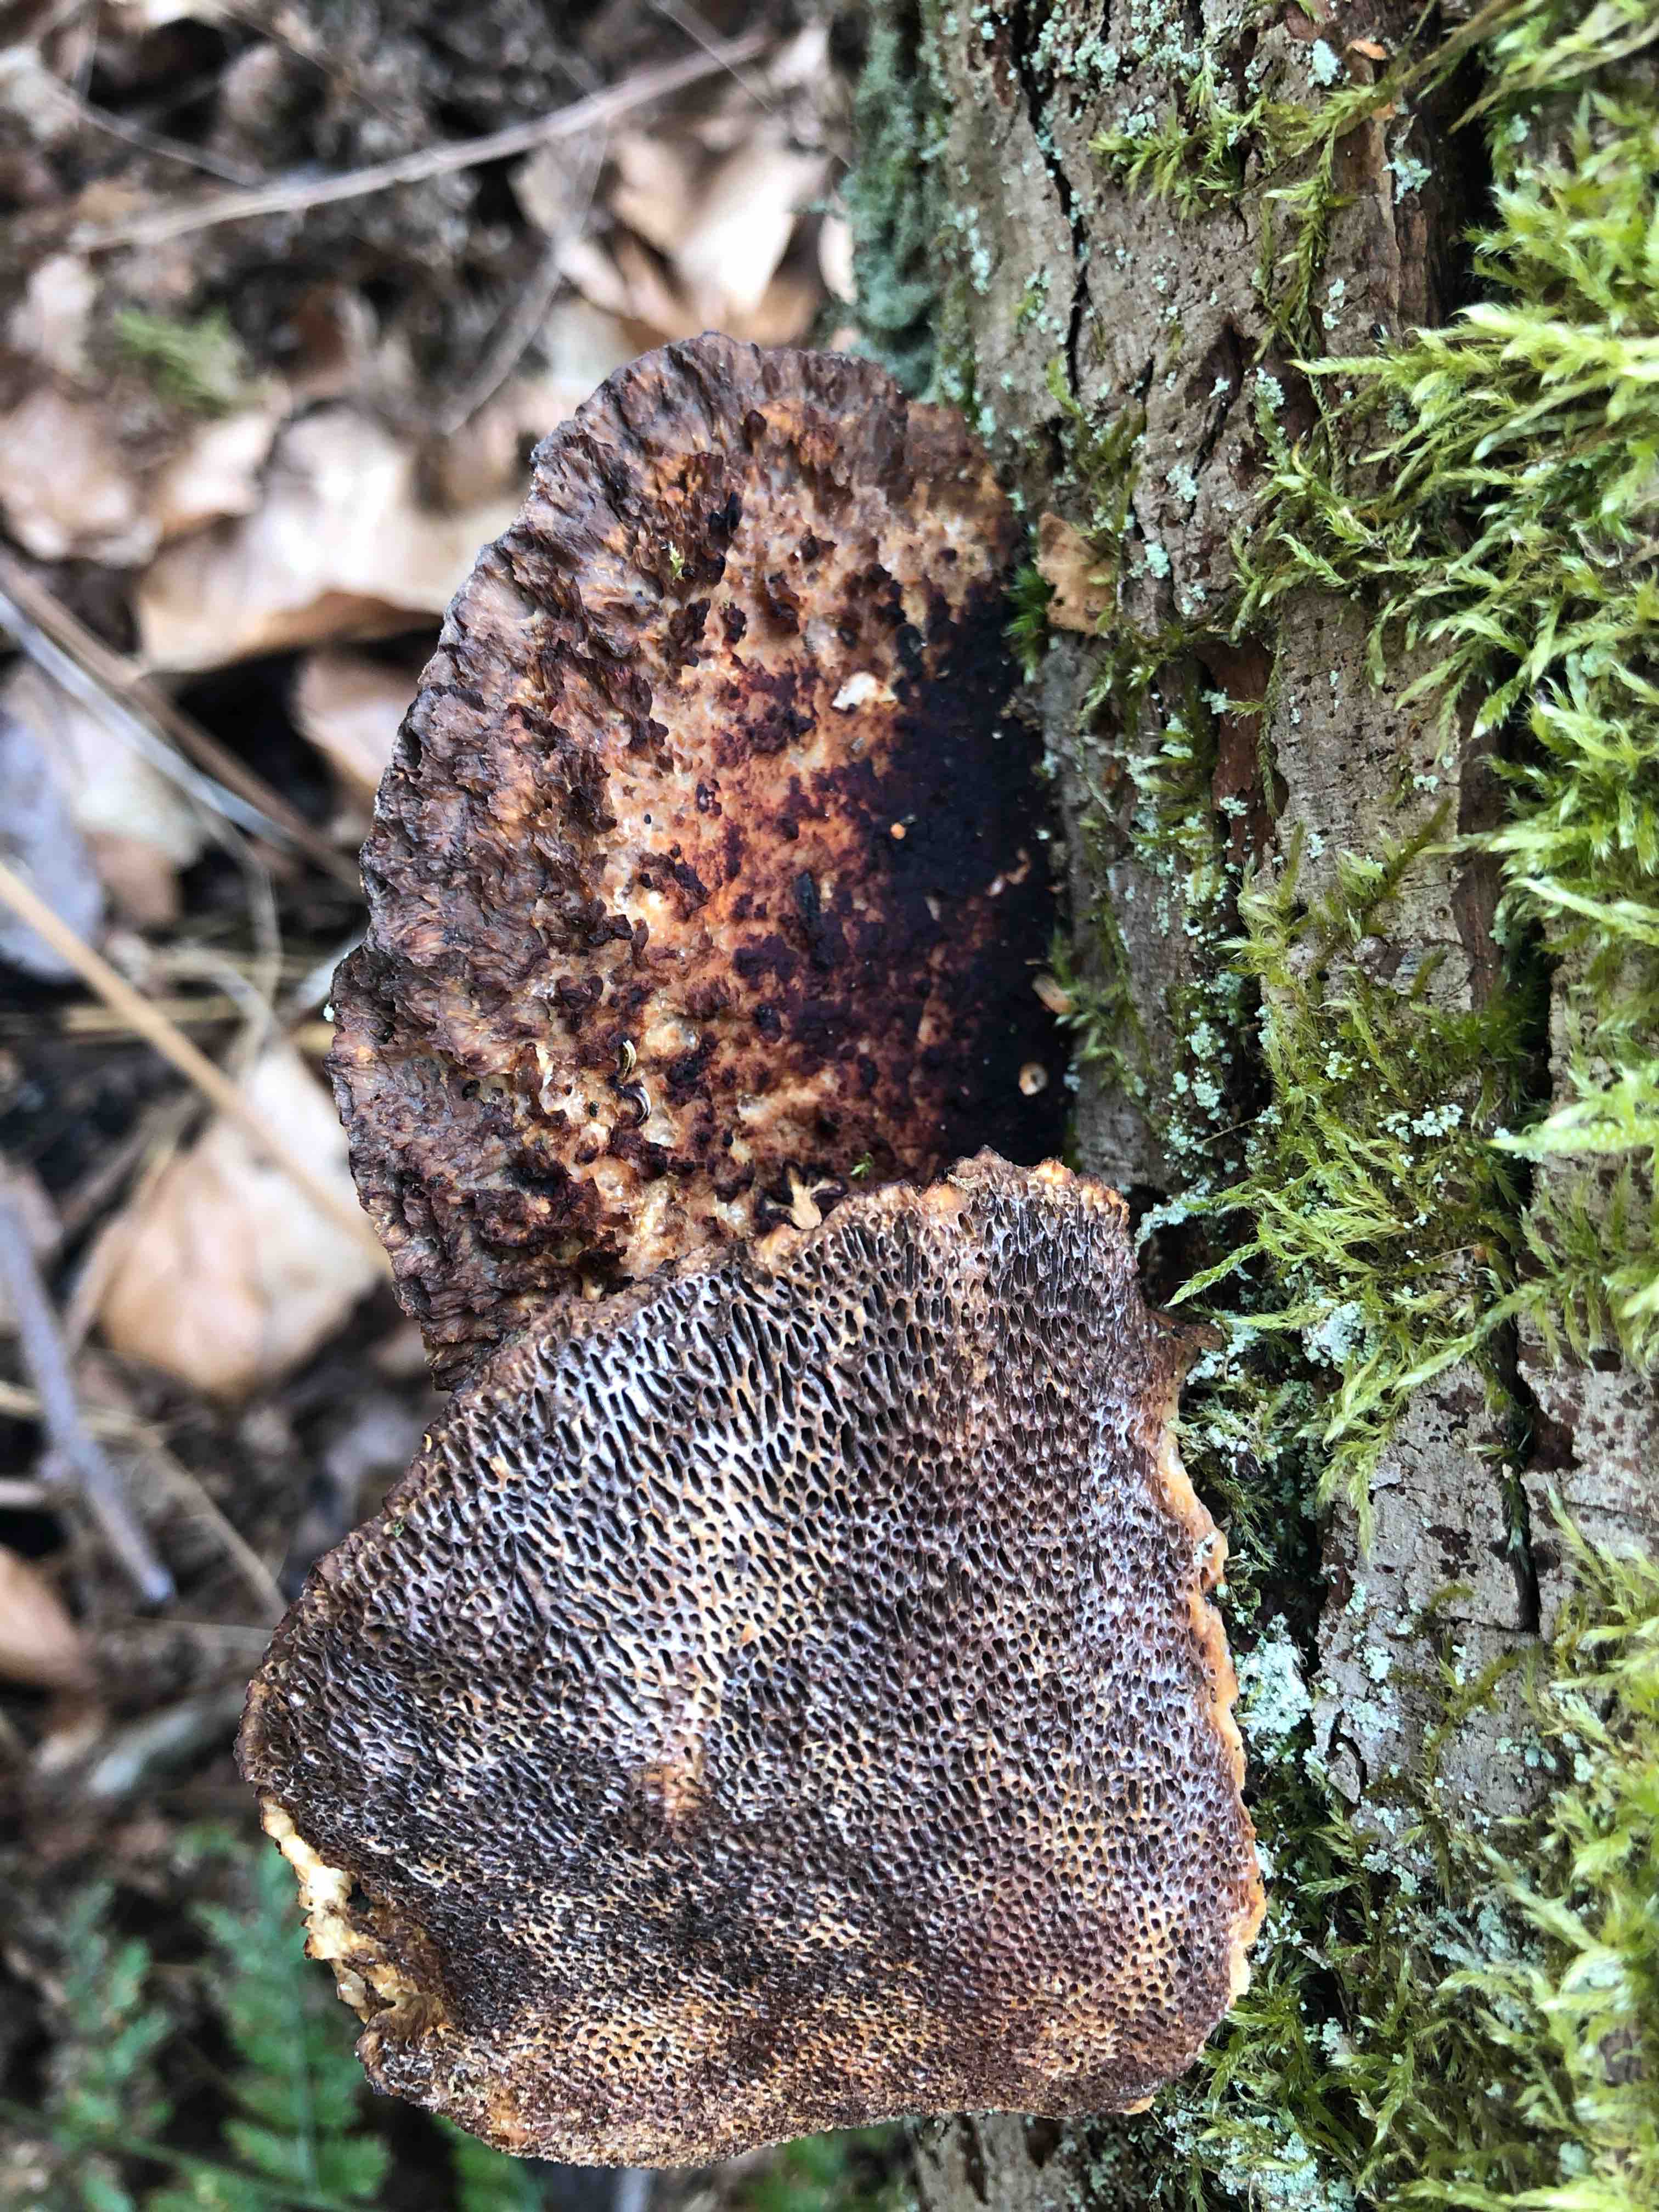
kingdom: Fungi
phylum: Basidiomycota
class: Agaricomycetes
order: Polyporales
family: Polyporaceae
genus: Daedaleopsis
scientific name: Daedaleopsis confragosa
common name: rødmende læderporesvamp
